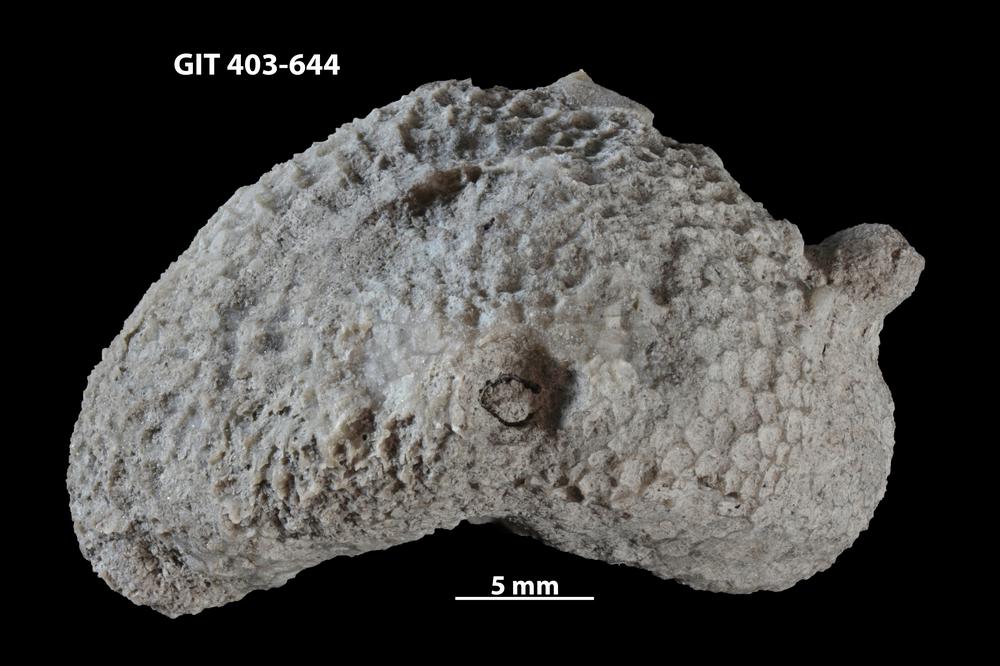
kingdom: Animalia
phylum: Cnidaria
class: Anthozoa
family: Favositidae
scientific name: Favositidae
